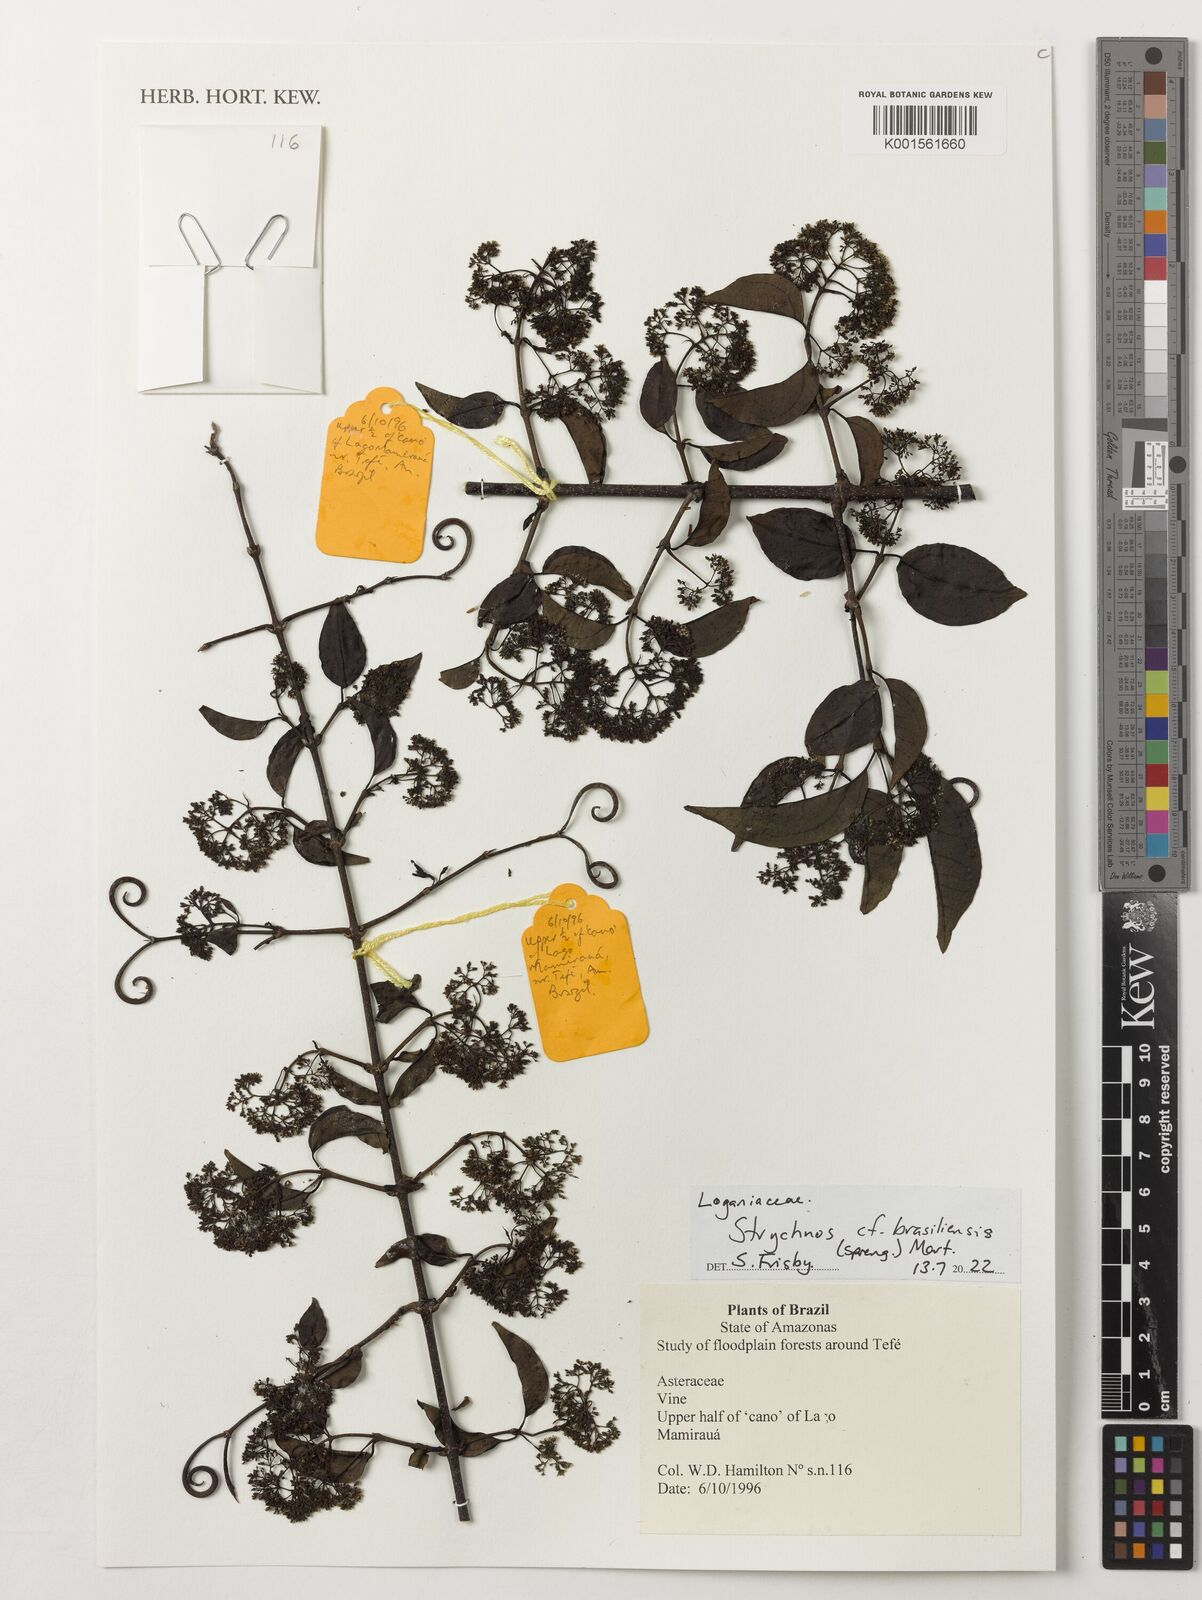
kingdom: Plantae
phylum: Tracheophyta
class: Magnoliopsida
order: Gentianales
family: Loganiaceae
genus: Strychnos
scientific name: Strychnos brasiliensis
